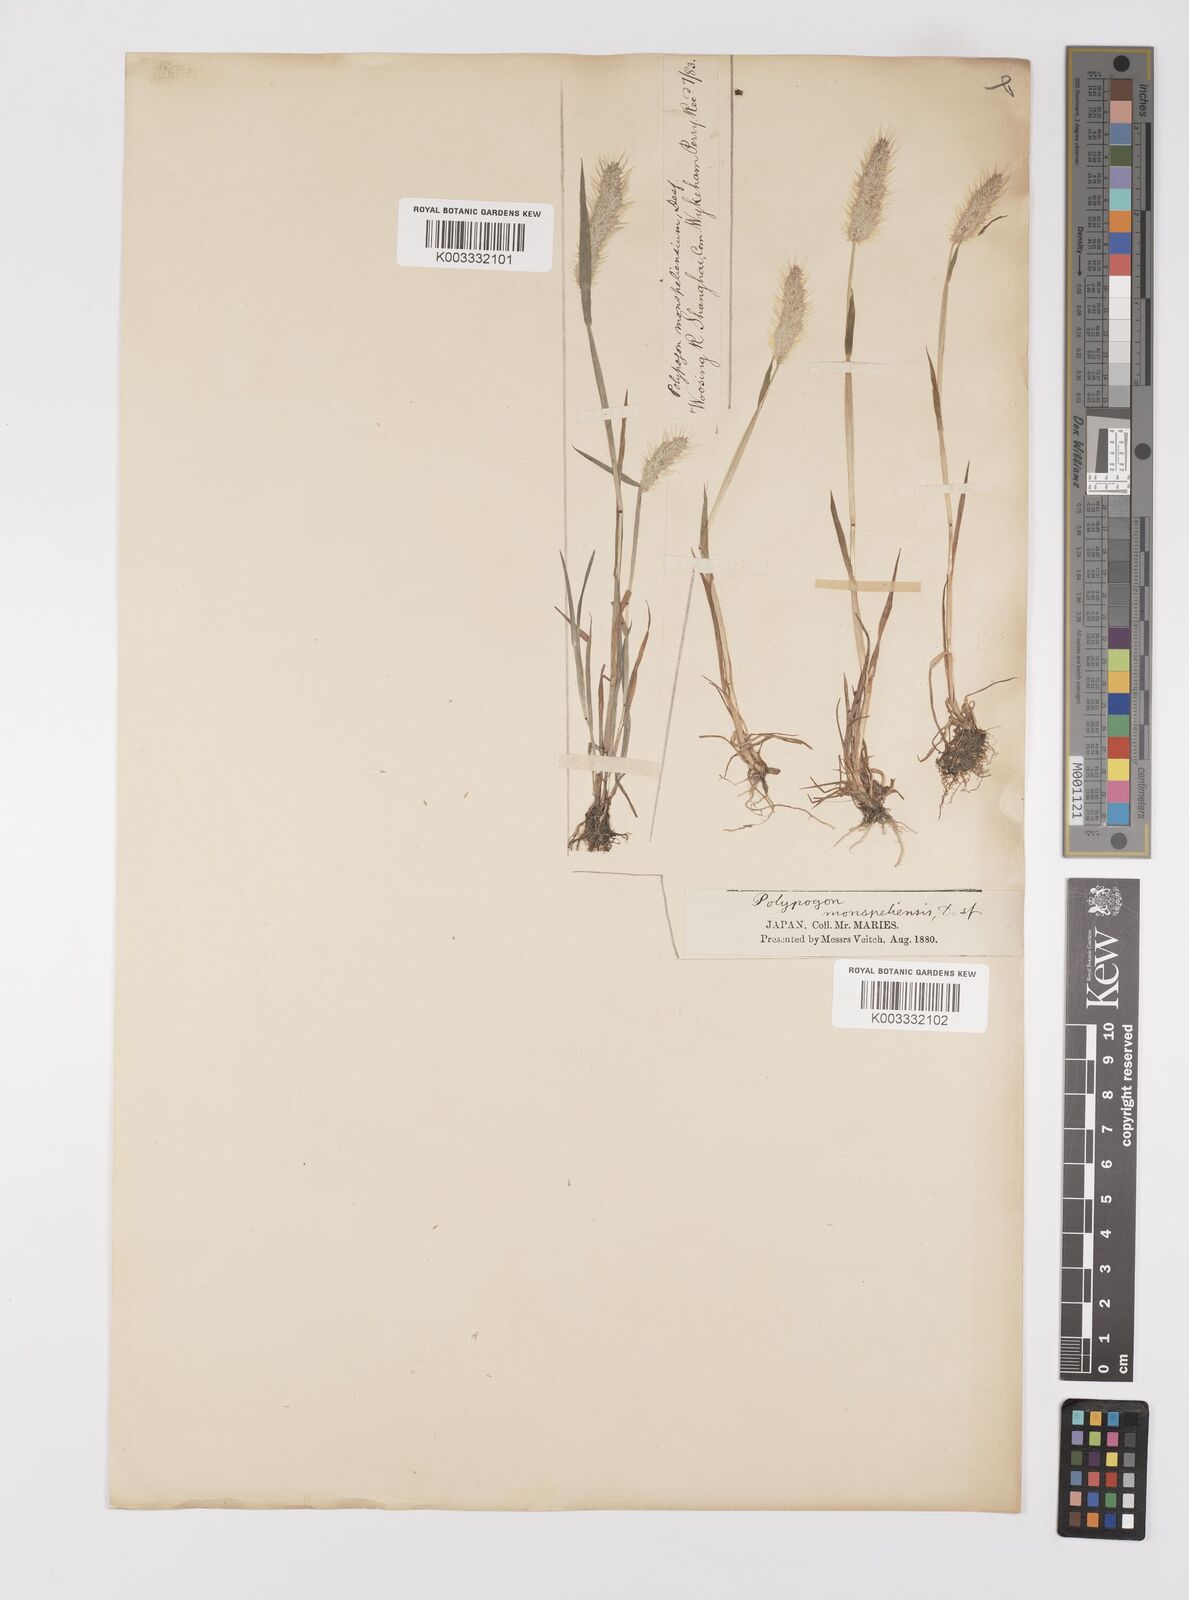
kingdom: Plantae
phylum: Tracheophyta
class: Liliopsida
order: Poales
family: Poaceae
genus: Polypogon
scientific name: Polypogon monspeliensis
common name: Annual rabbitsfoot grass
